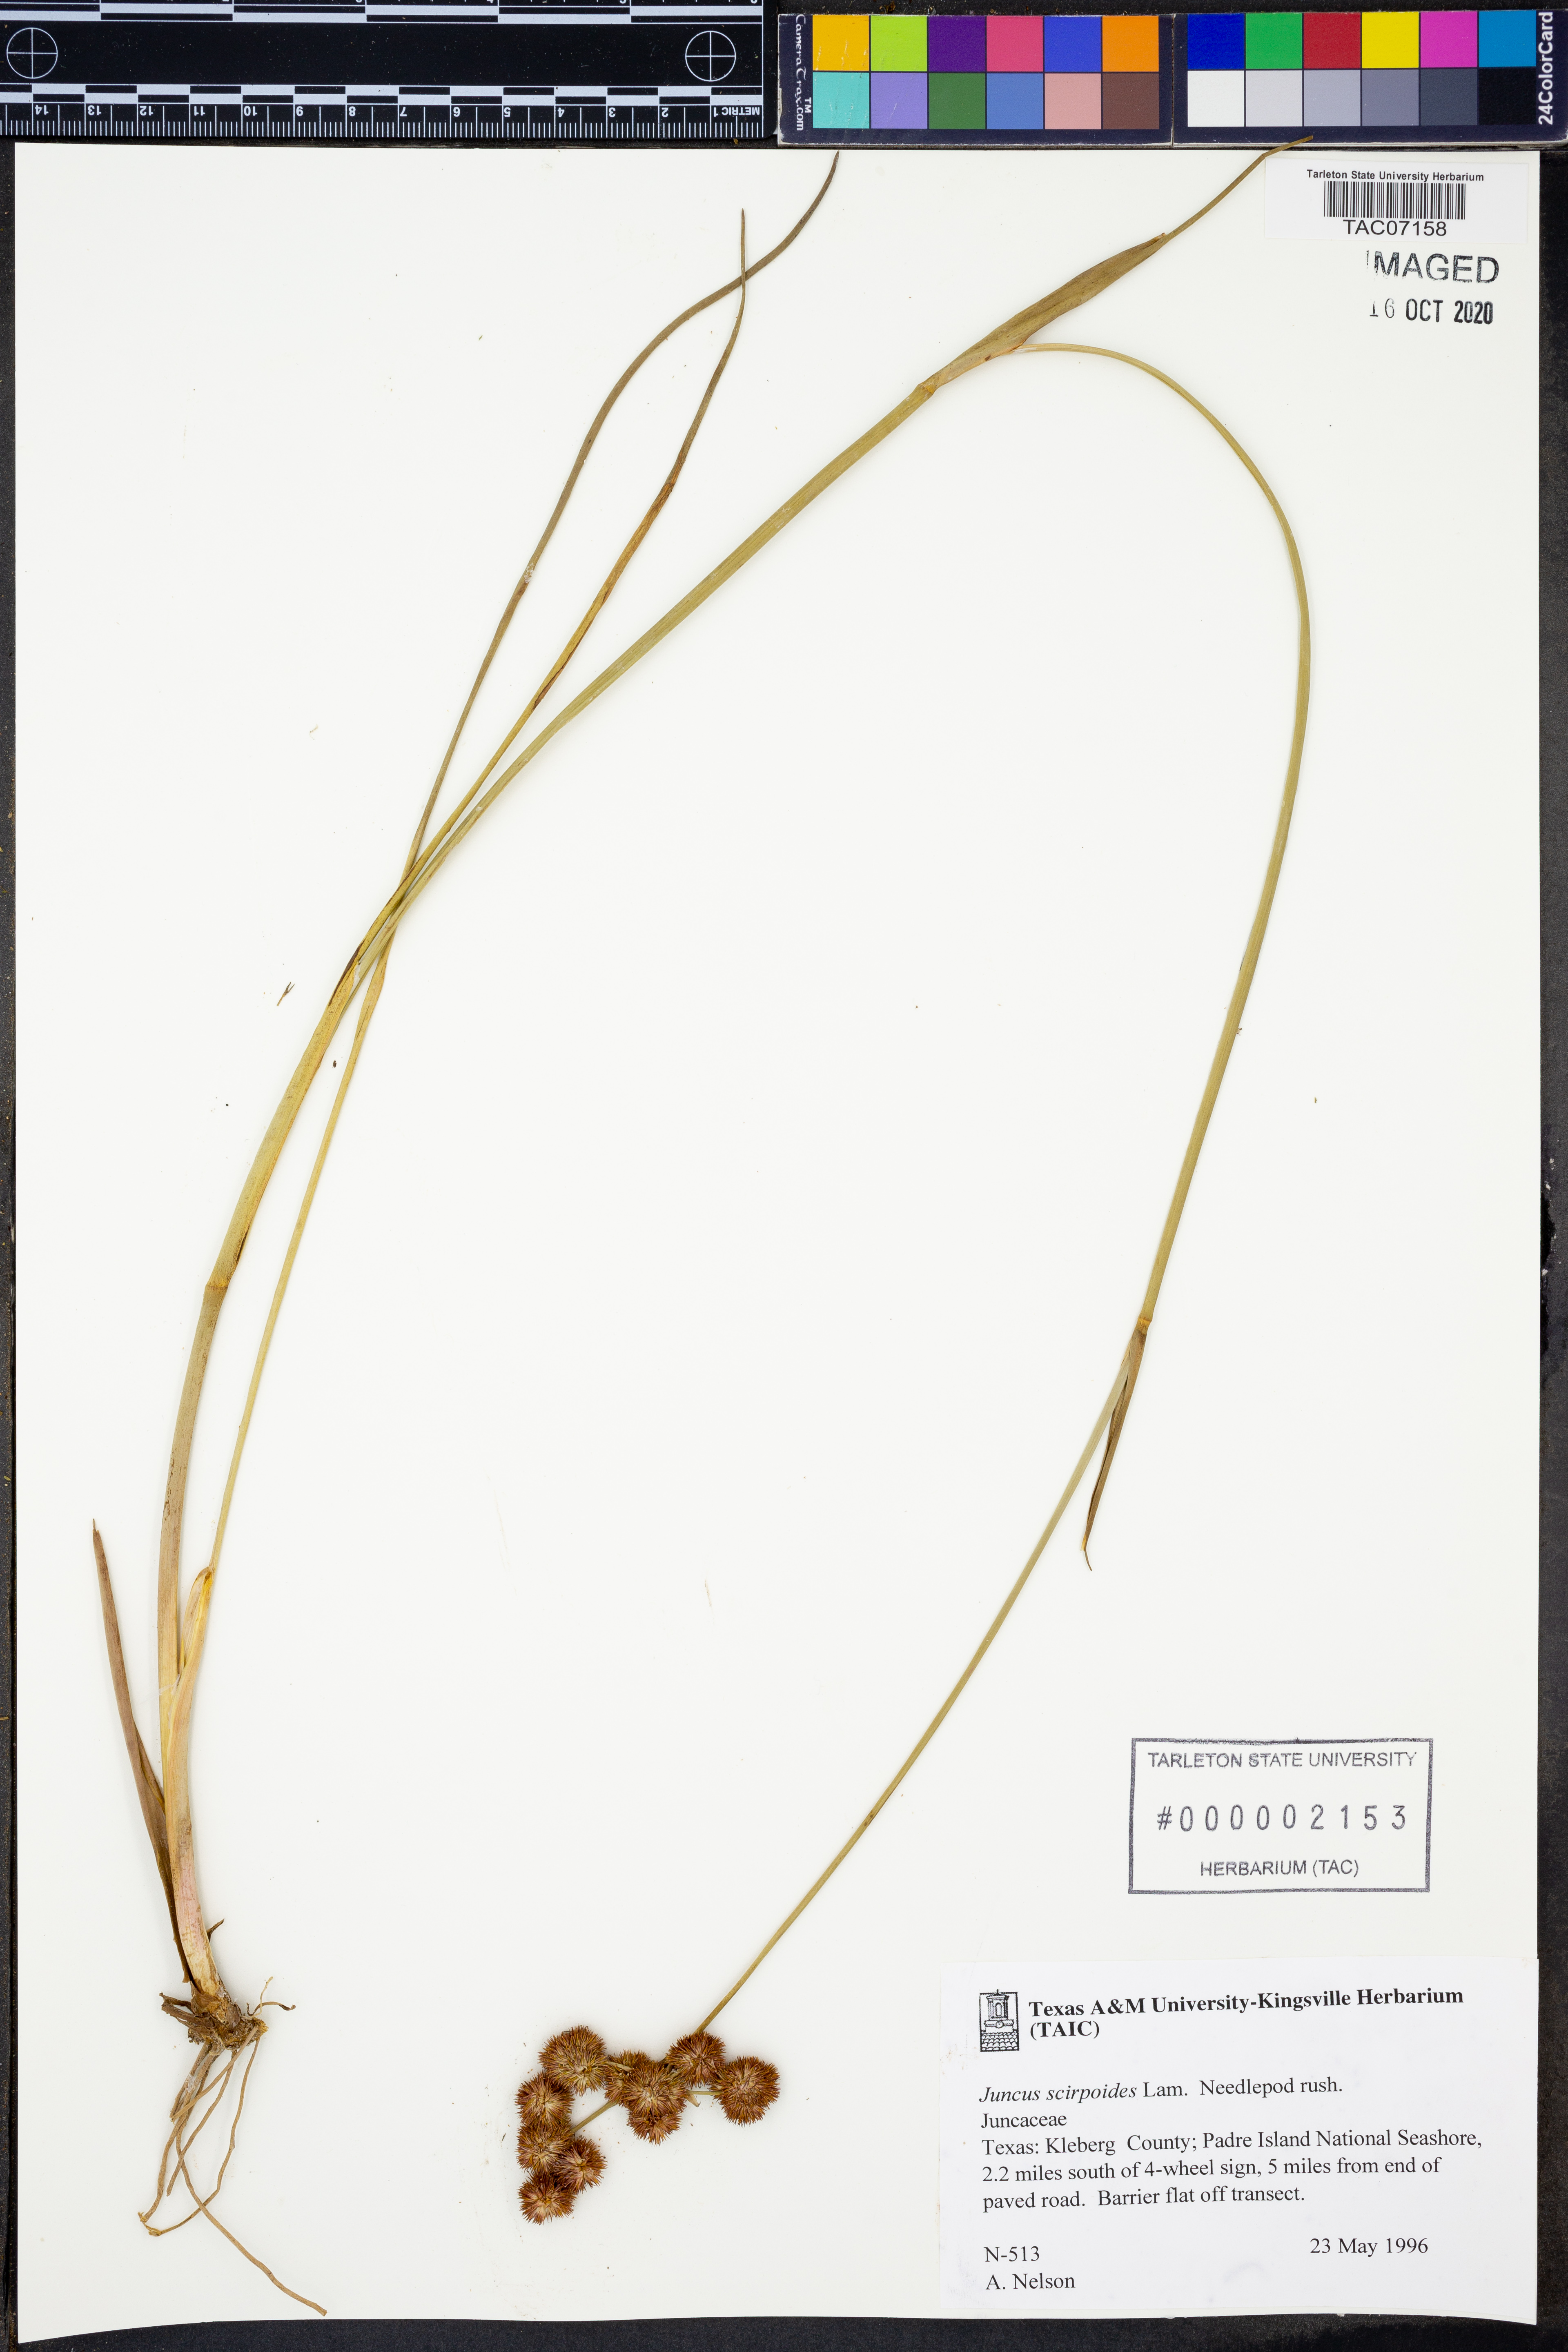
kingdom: Plantae
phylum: Tracheophyta
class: Liliopsida
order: Poales
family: Juncaceae
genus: Juncus
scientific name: Juncus scirpoides
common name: Needlepod rush
